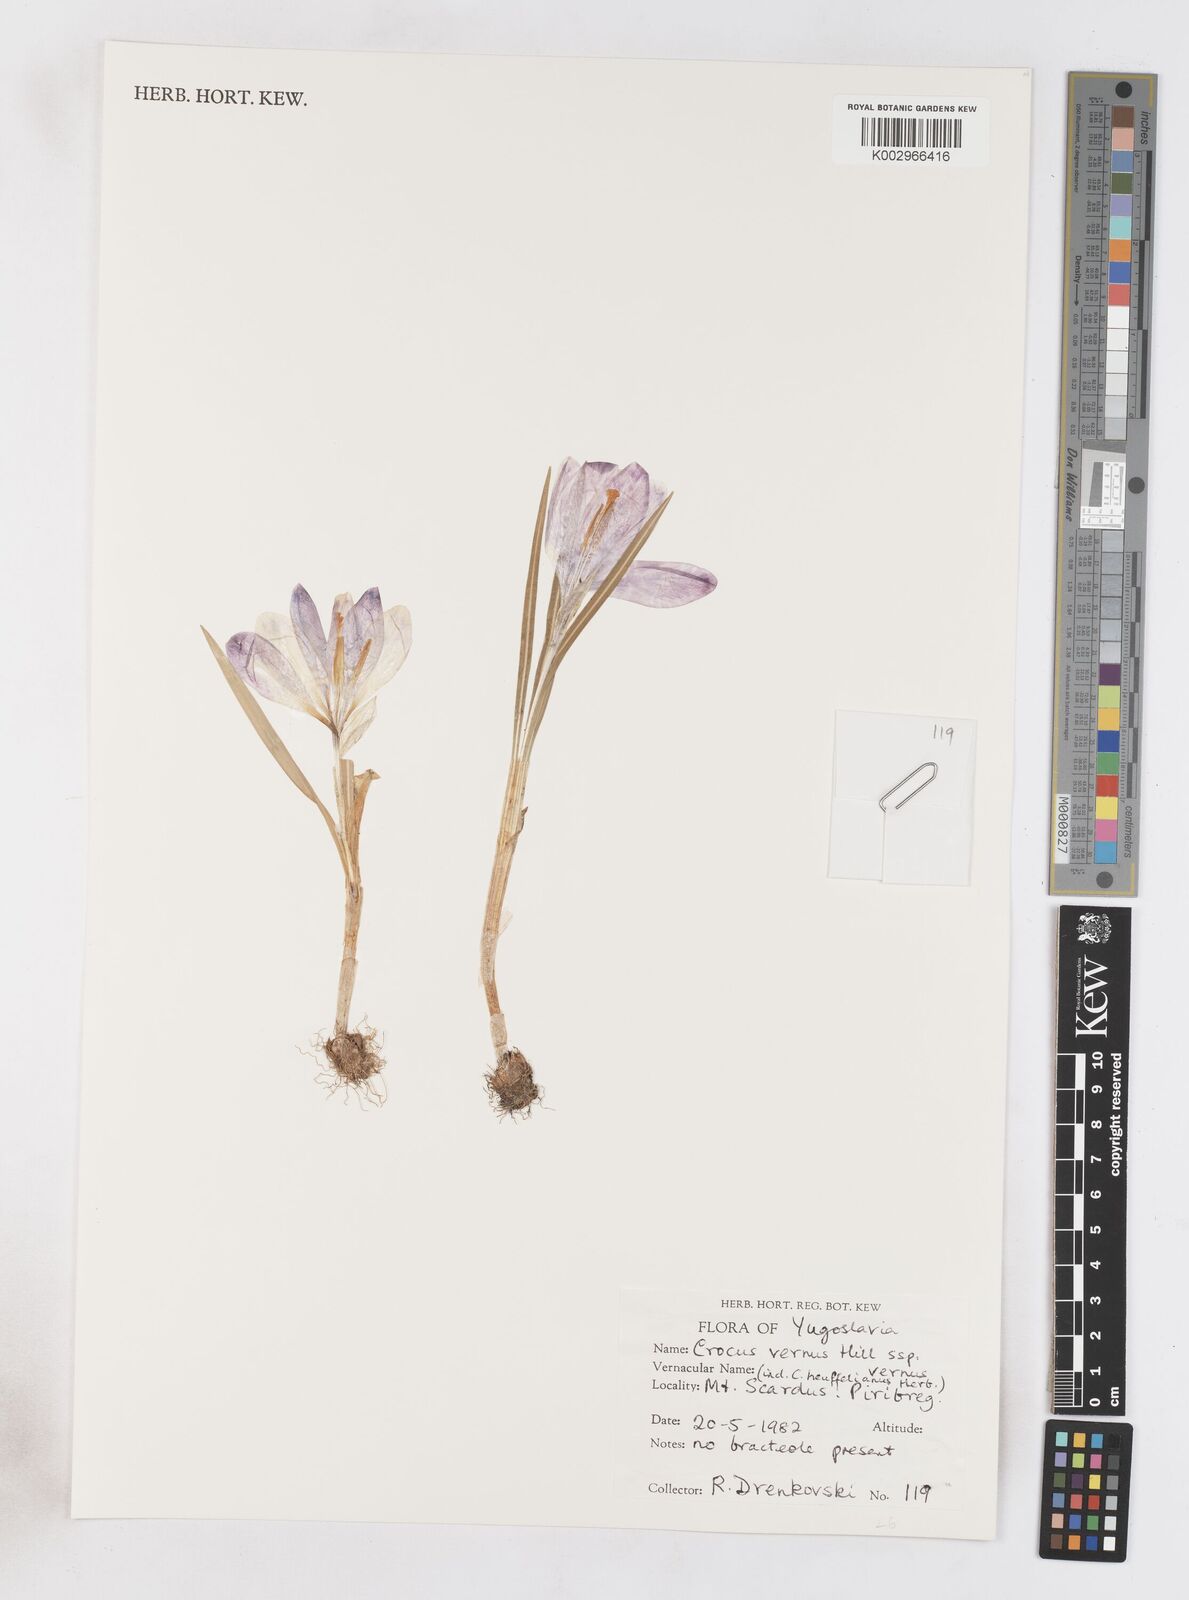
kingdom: Plantae
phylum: Tracheophyta
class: Liliopsida
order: Asparagales
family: Iridaceae
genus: Crocus
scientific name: Crocus vernus
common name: Spring crocus
